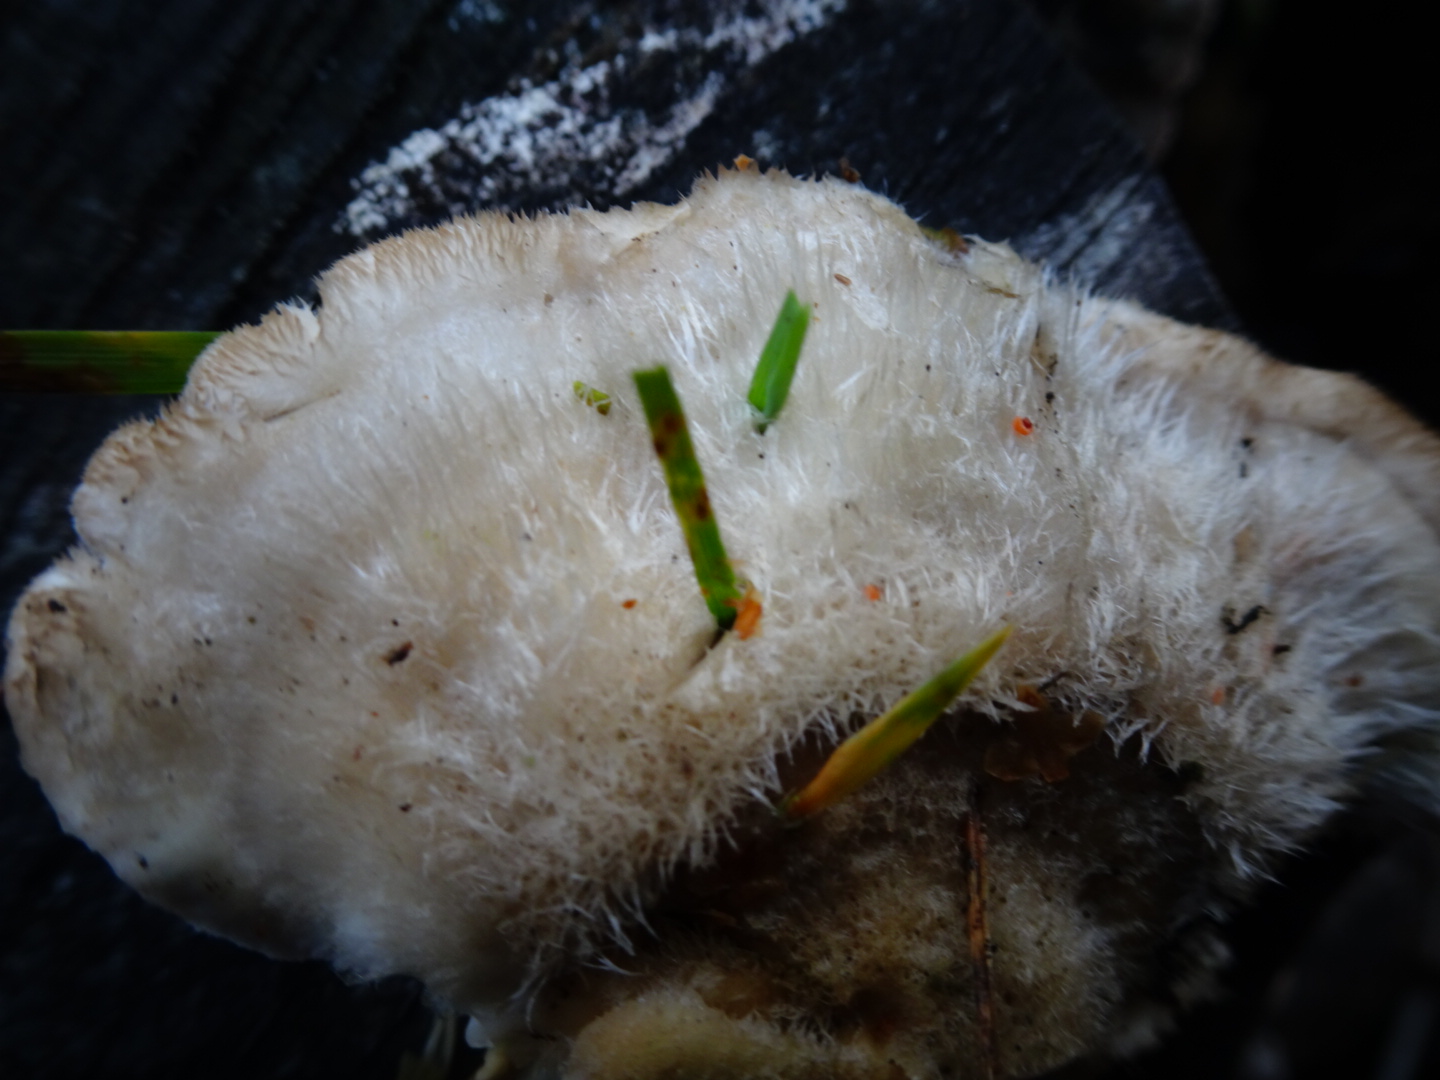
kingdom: Fungi
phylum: Basidiomycota
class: Agaricomycetes
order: Polyporales
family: Polyporaceae
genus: Trametes
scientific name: Trametes hirsuta
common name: håret læderporesvamp
